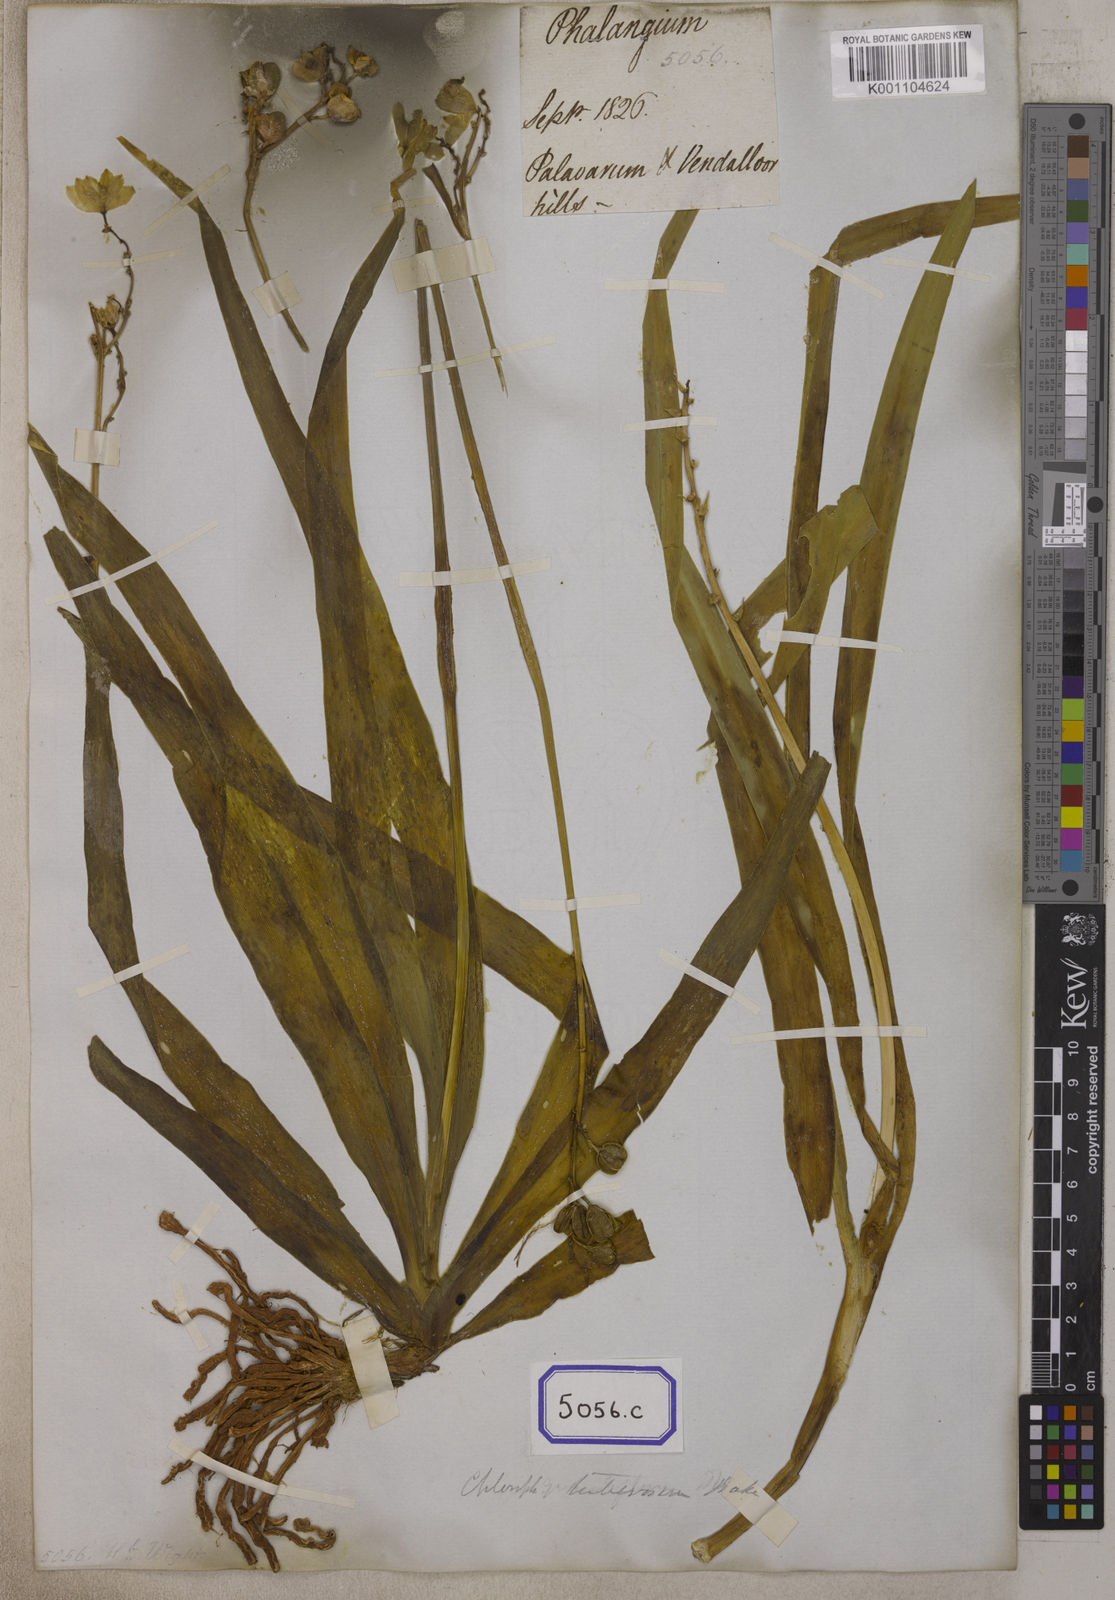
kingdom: Plantae
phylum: Tracheophyta
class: Liliopsida
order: Asparagales
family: Iridaceae
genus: Phalangium
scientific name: Phalangium
